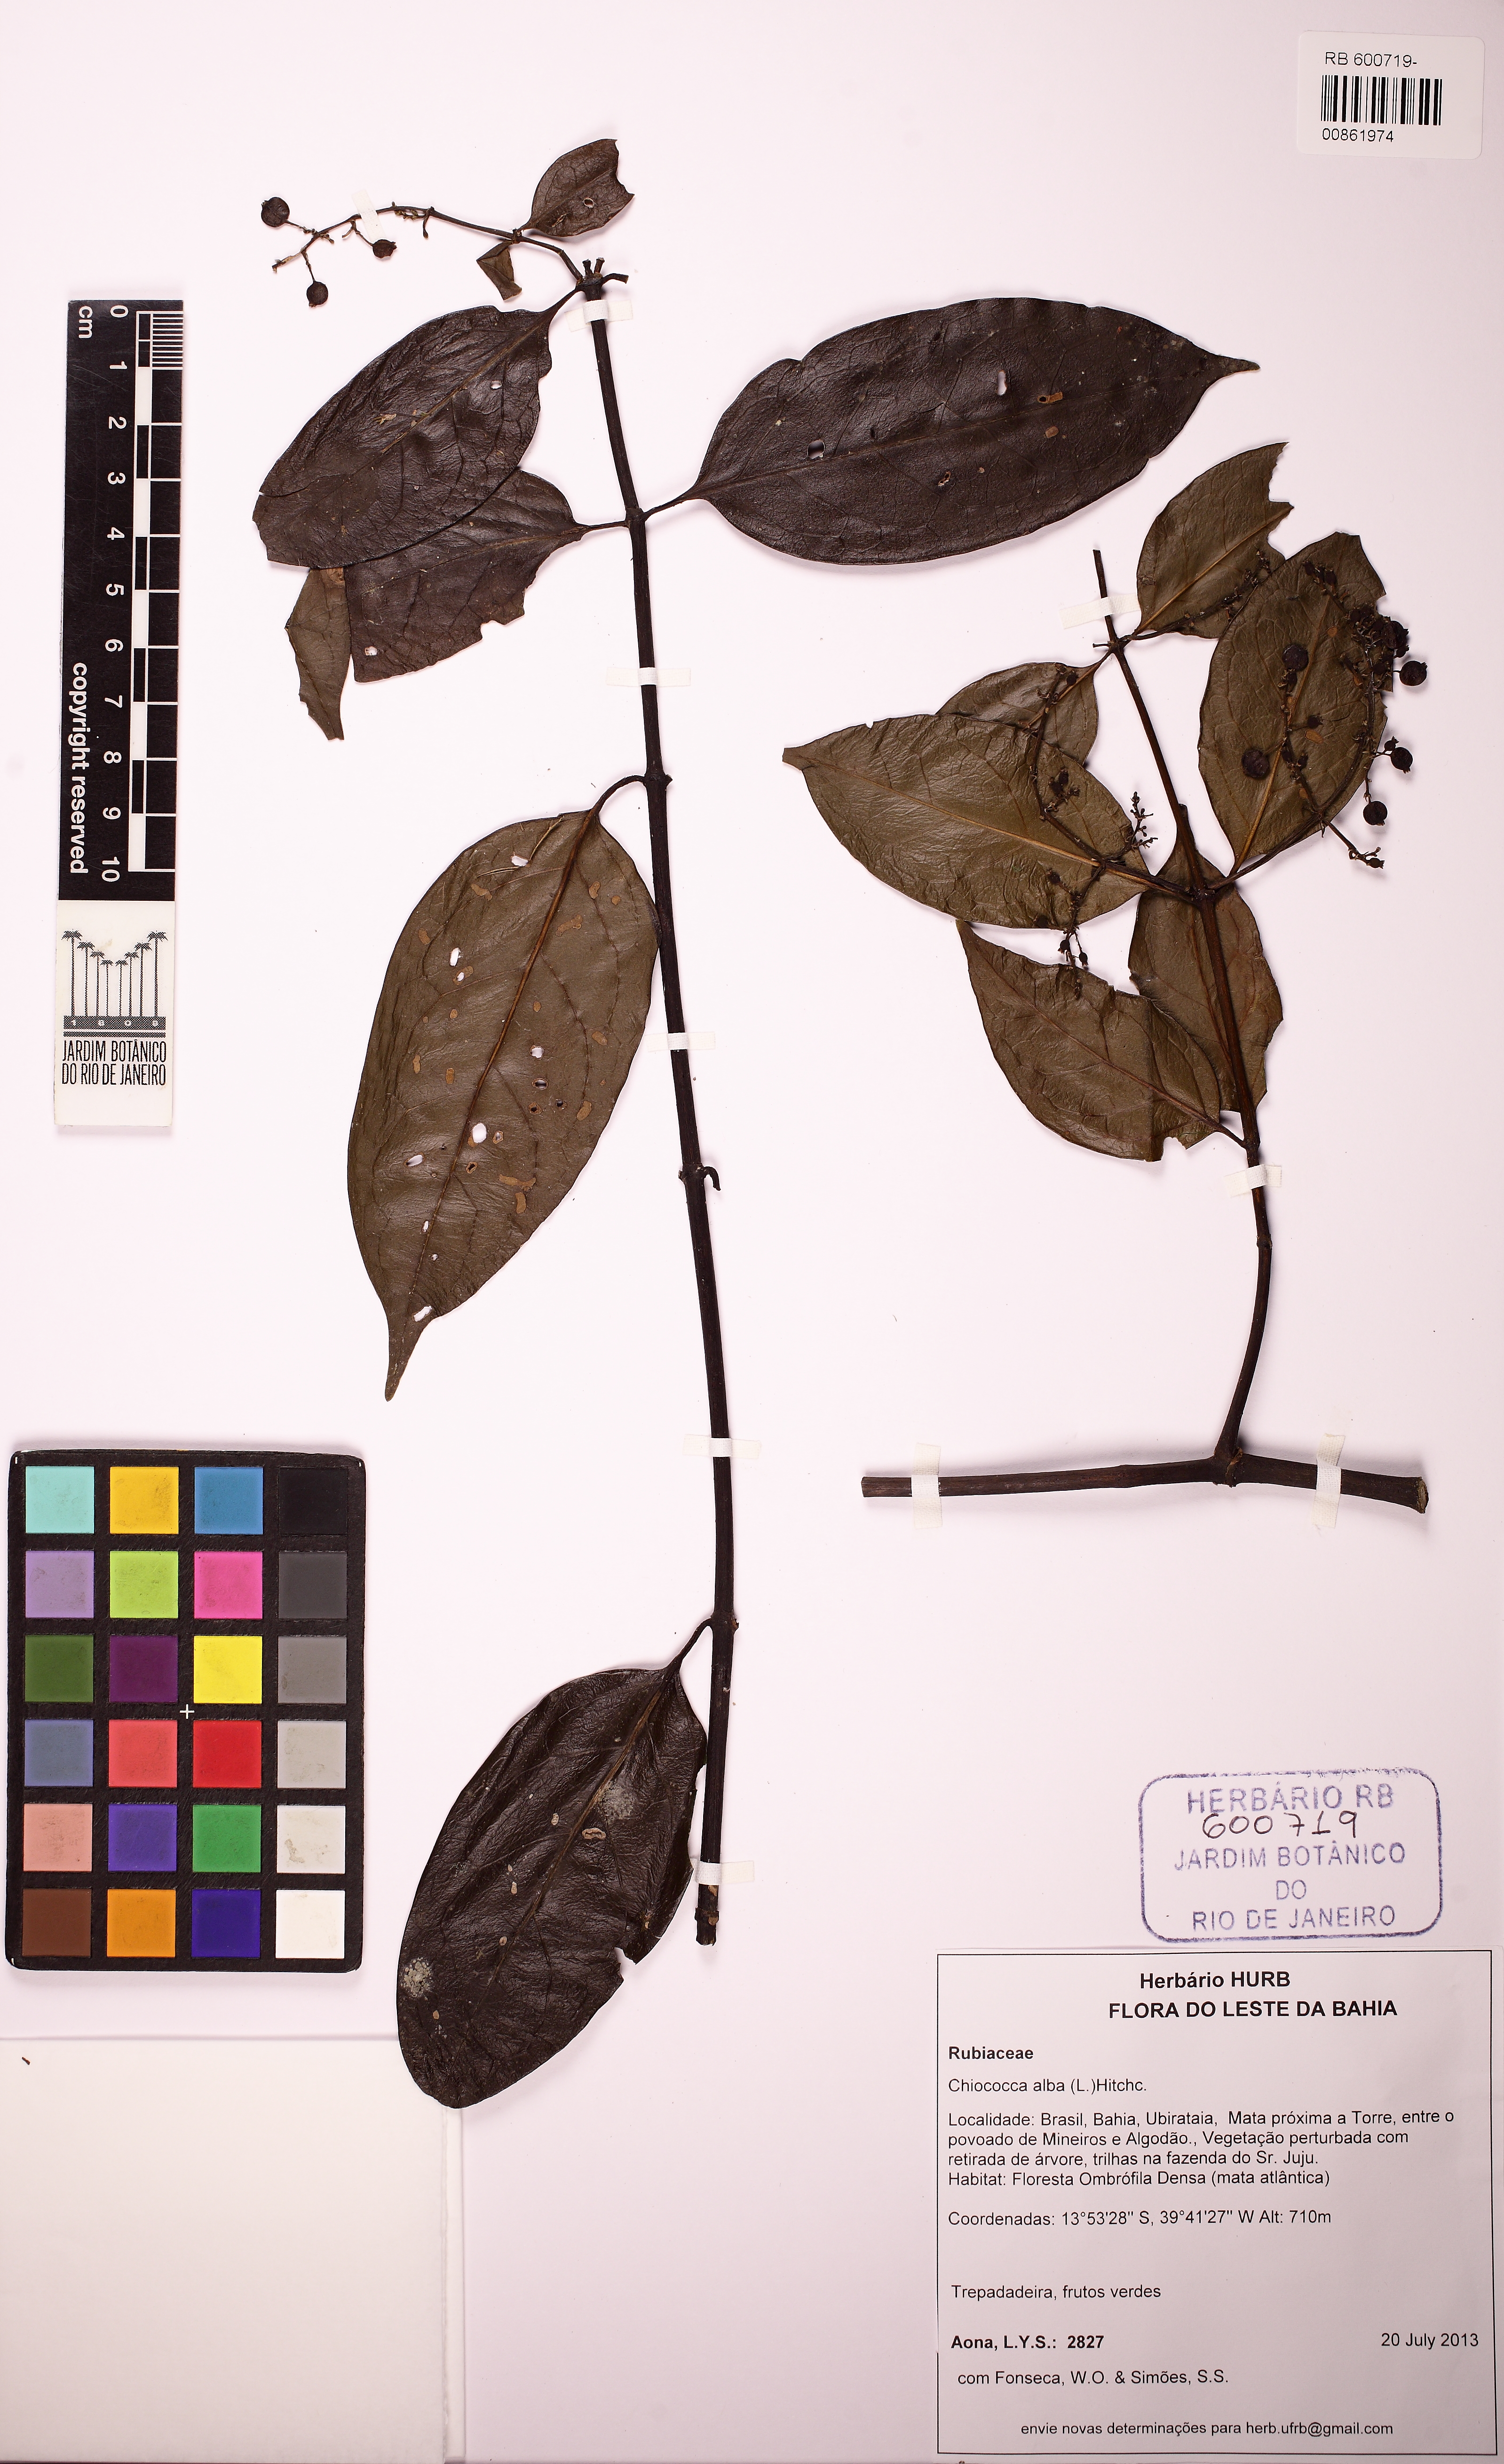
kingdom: Plantae
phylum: Tracheophyta
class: Magnoliopsida
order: Gentianales
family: Rubiaceae
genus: Chiococca
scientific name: Chiococca alba
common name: Snowberry
